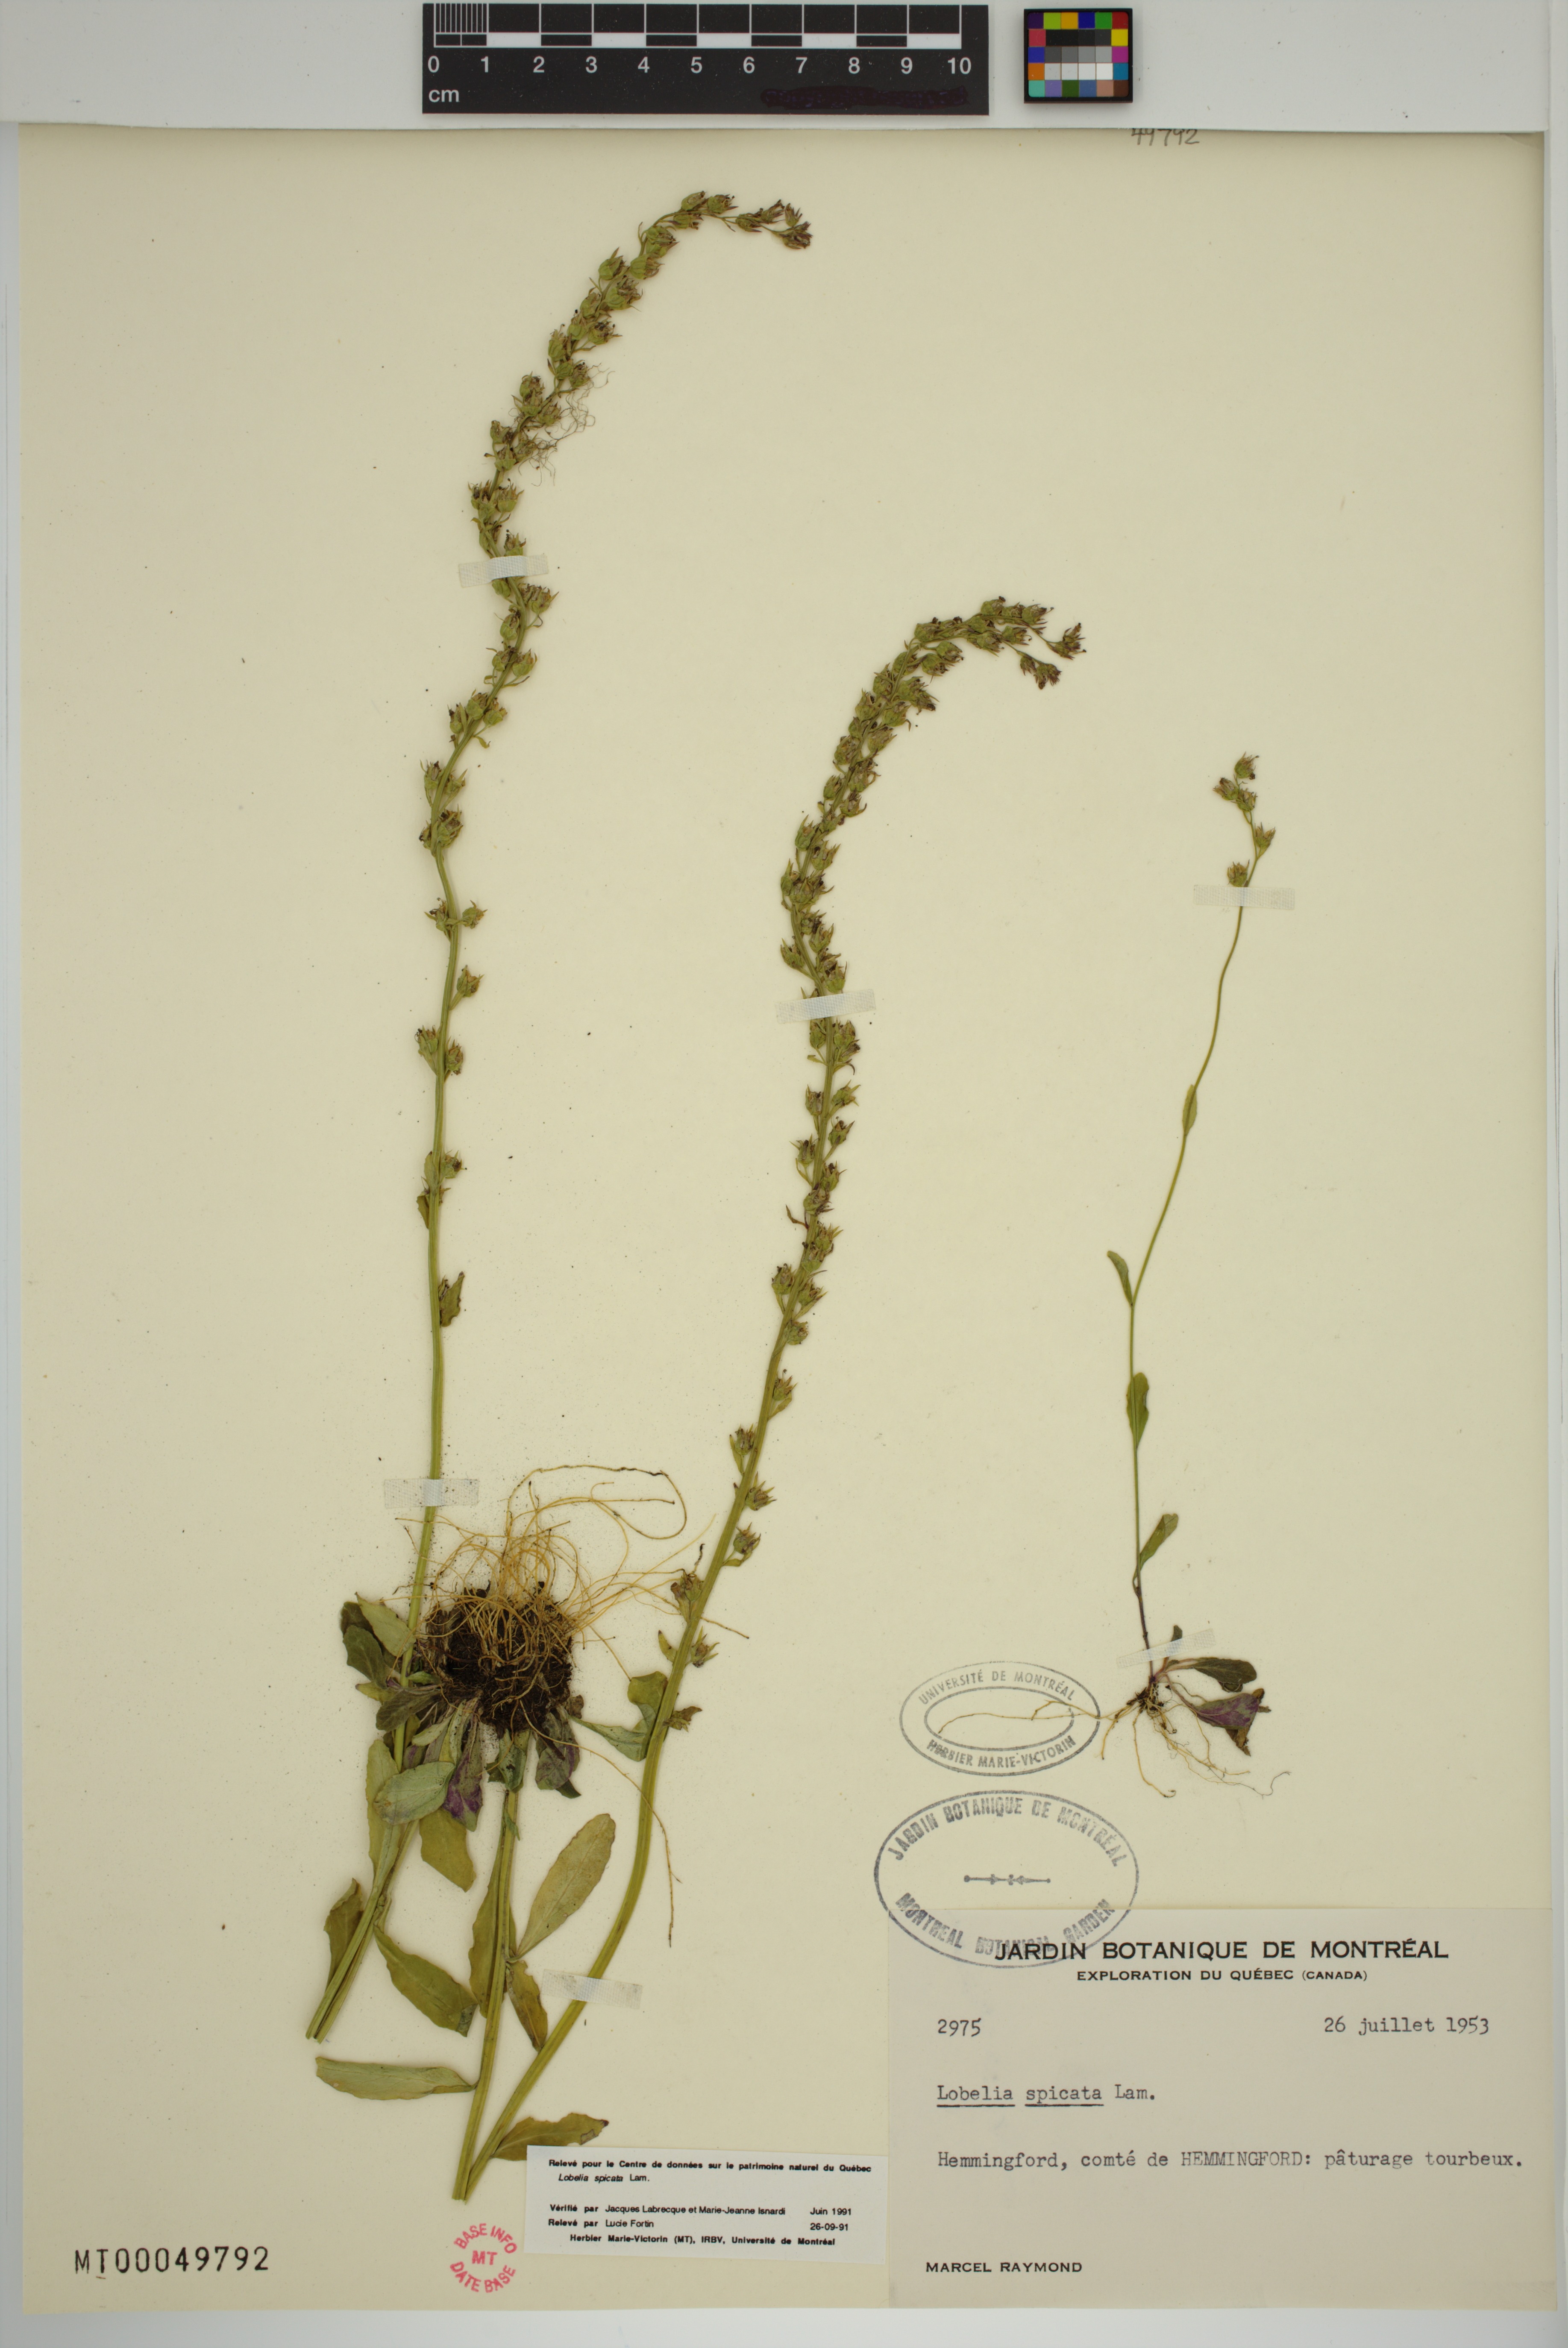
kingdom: Plantae
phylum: Tracheophyta
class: Magnoliopsida
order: Asterales
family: Campanulaceae
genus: Lobelia
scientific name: Lobelia spicata
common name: Pale-spike lobelia
